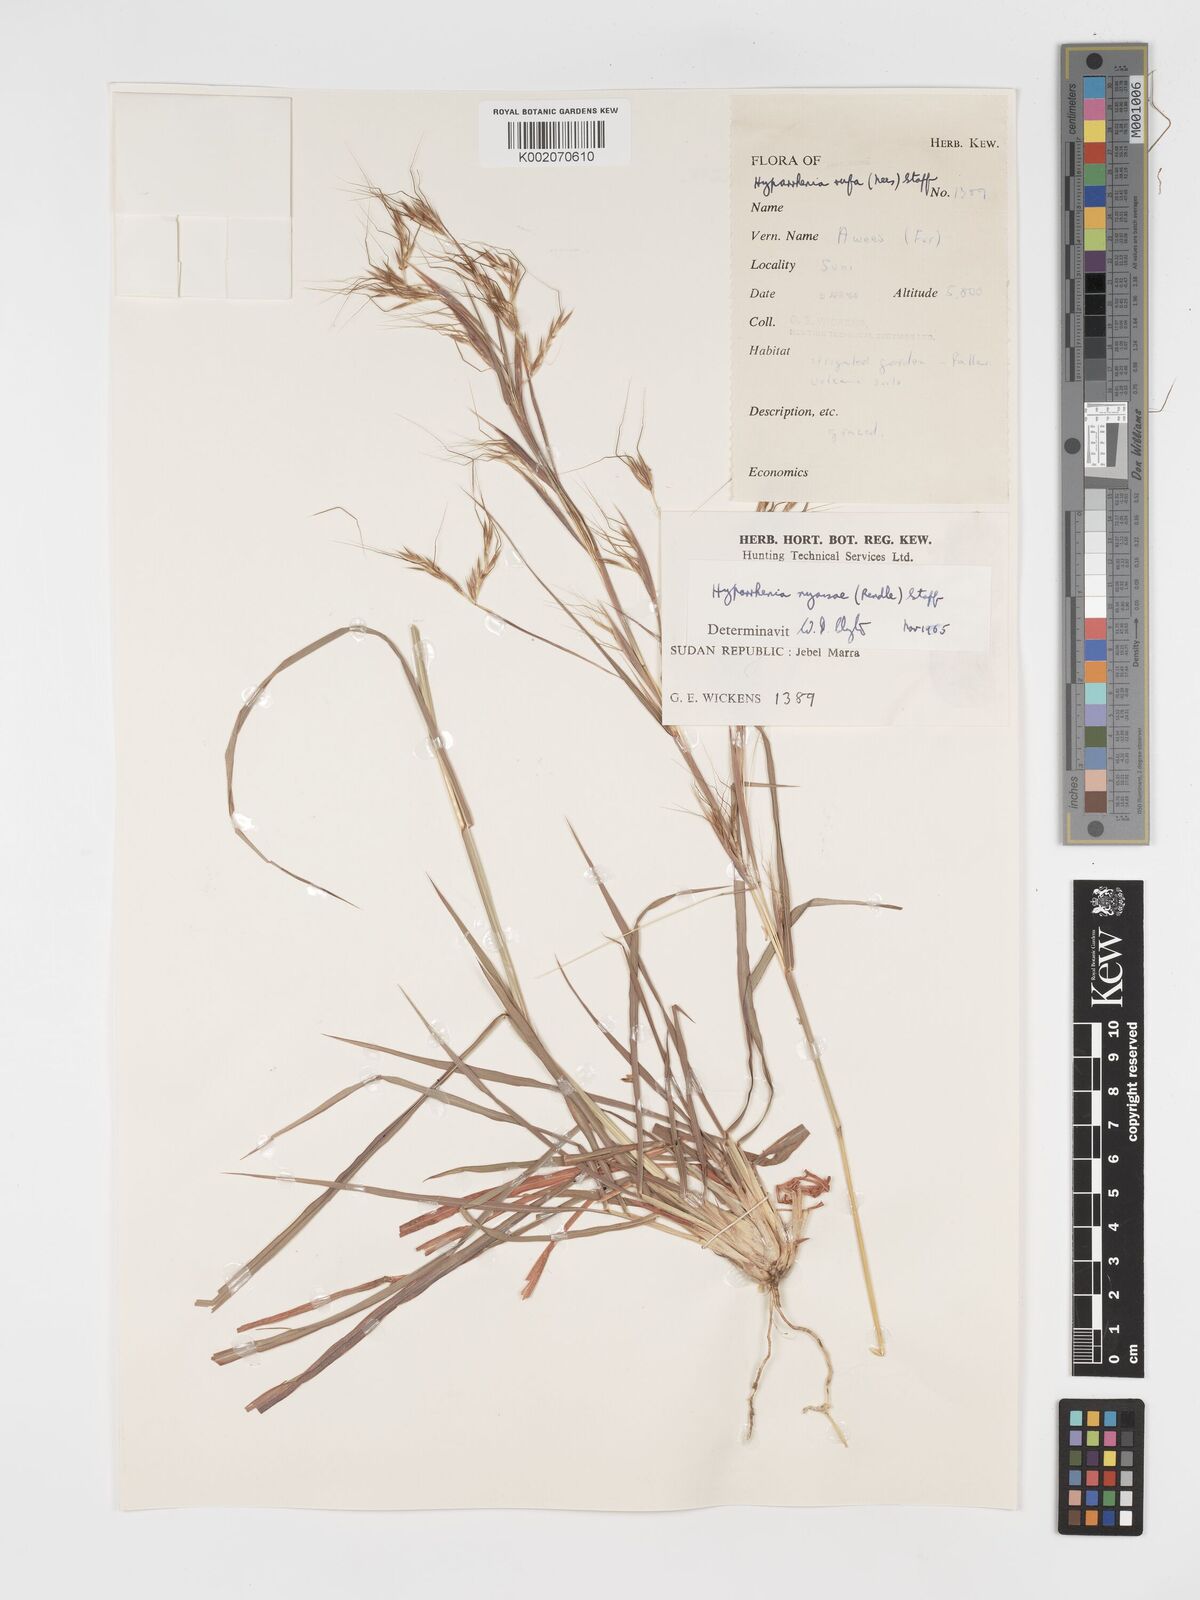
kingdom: Plantae
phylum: Tracheophyta
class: Liliopsida
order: Poales
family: Poaceae
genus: Hyparrhenia
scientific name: Hyparrhenia nyassae
